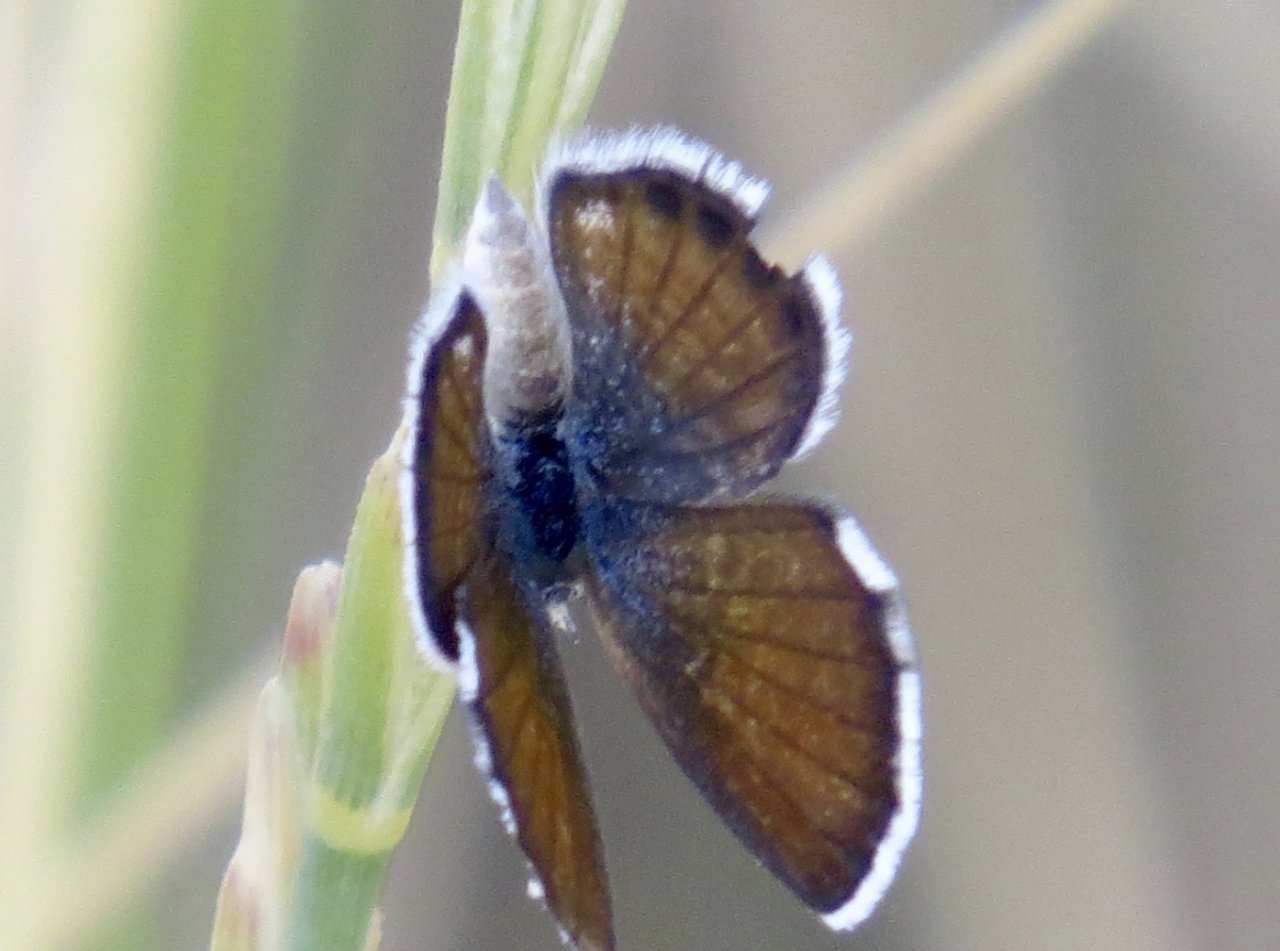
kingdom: Animalia
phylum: Arthropoda
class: Insecta
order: Lepidoptera
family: Lycaenidae
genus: Brephidium
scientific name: Brephidium exilis
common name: Western Pygmy-Blue
